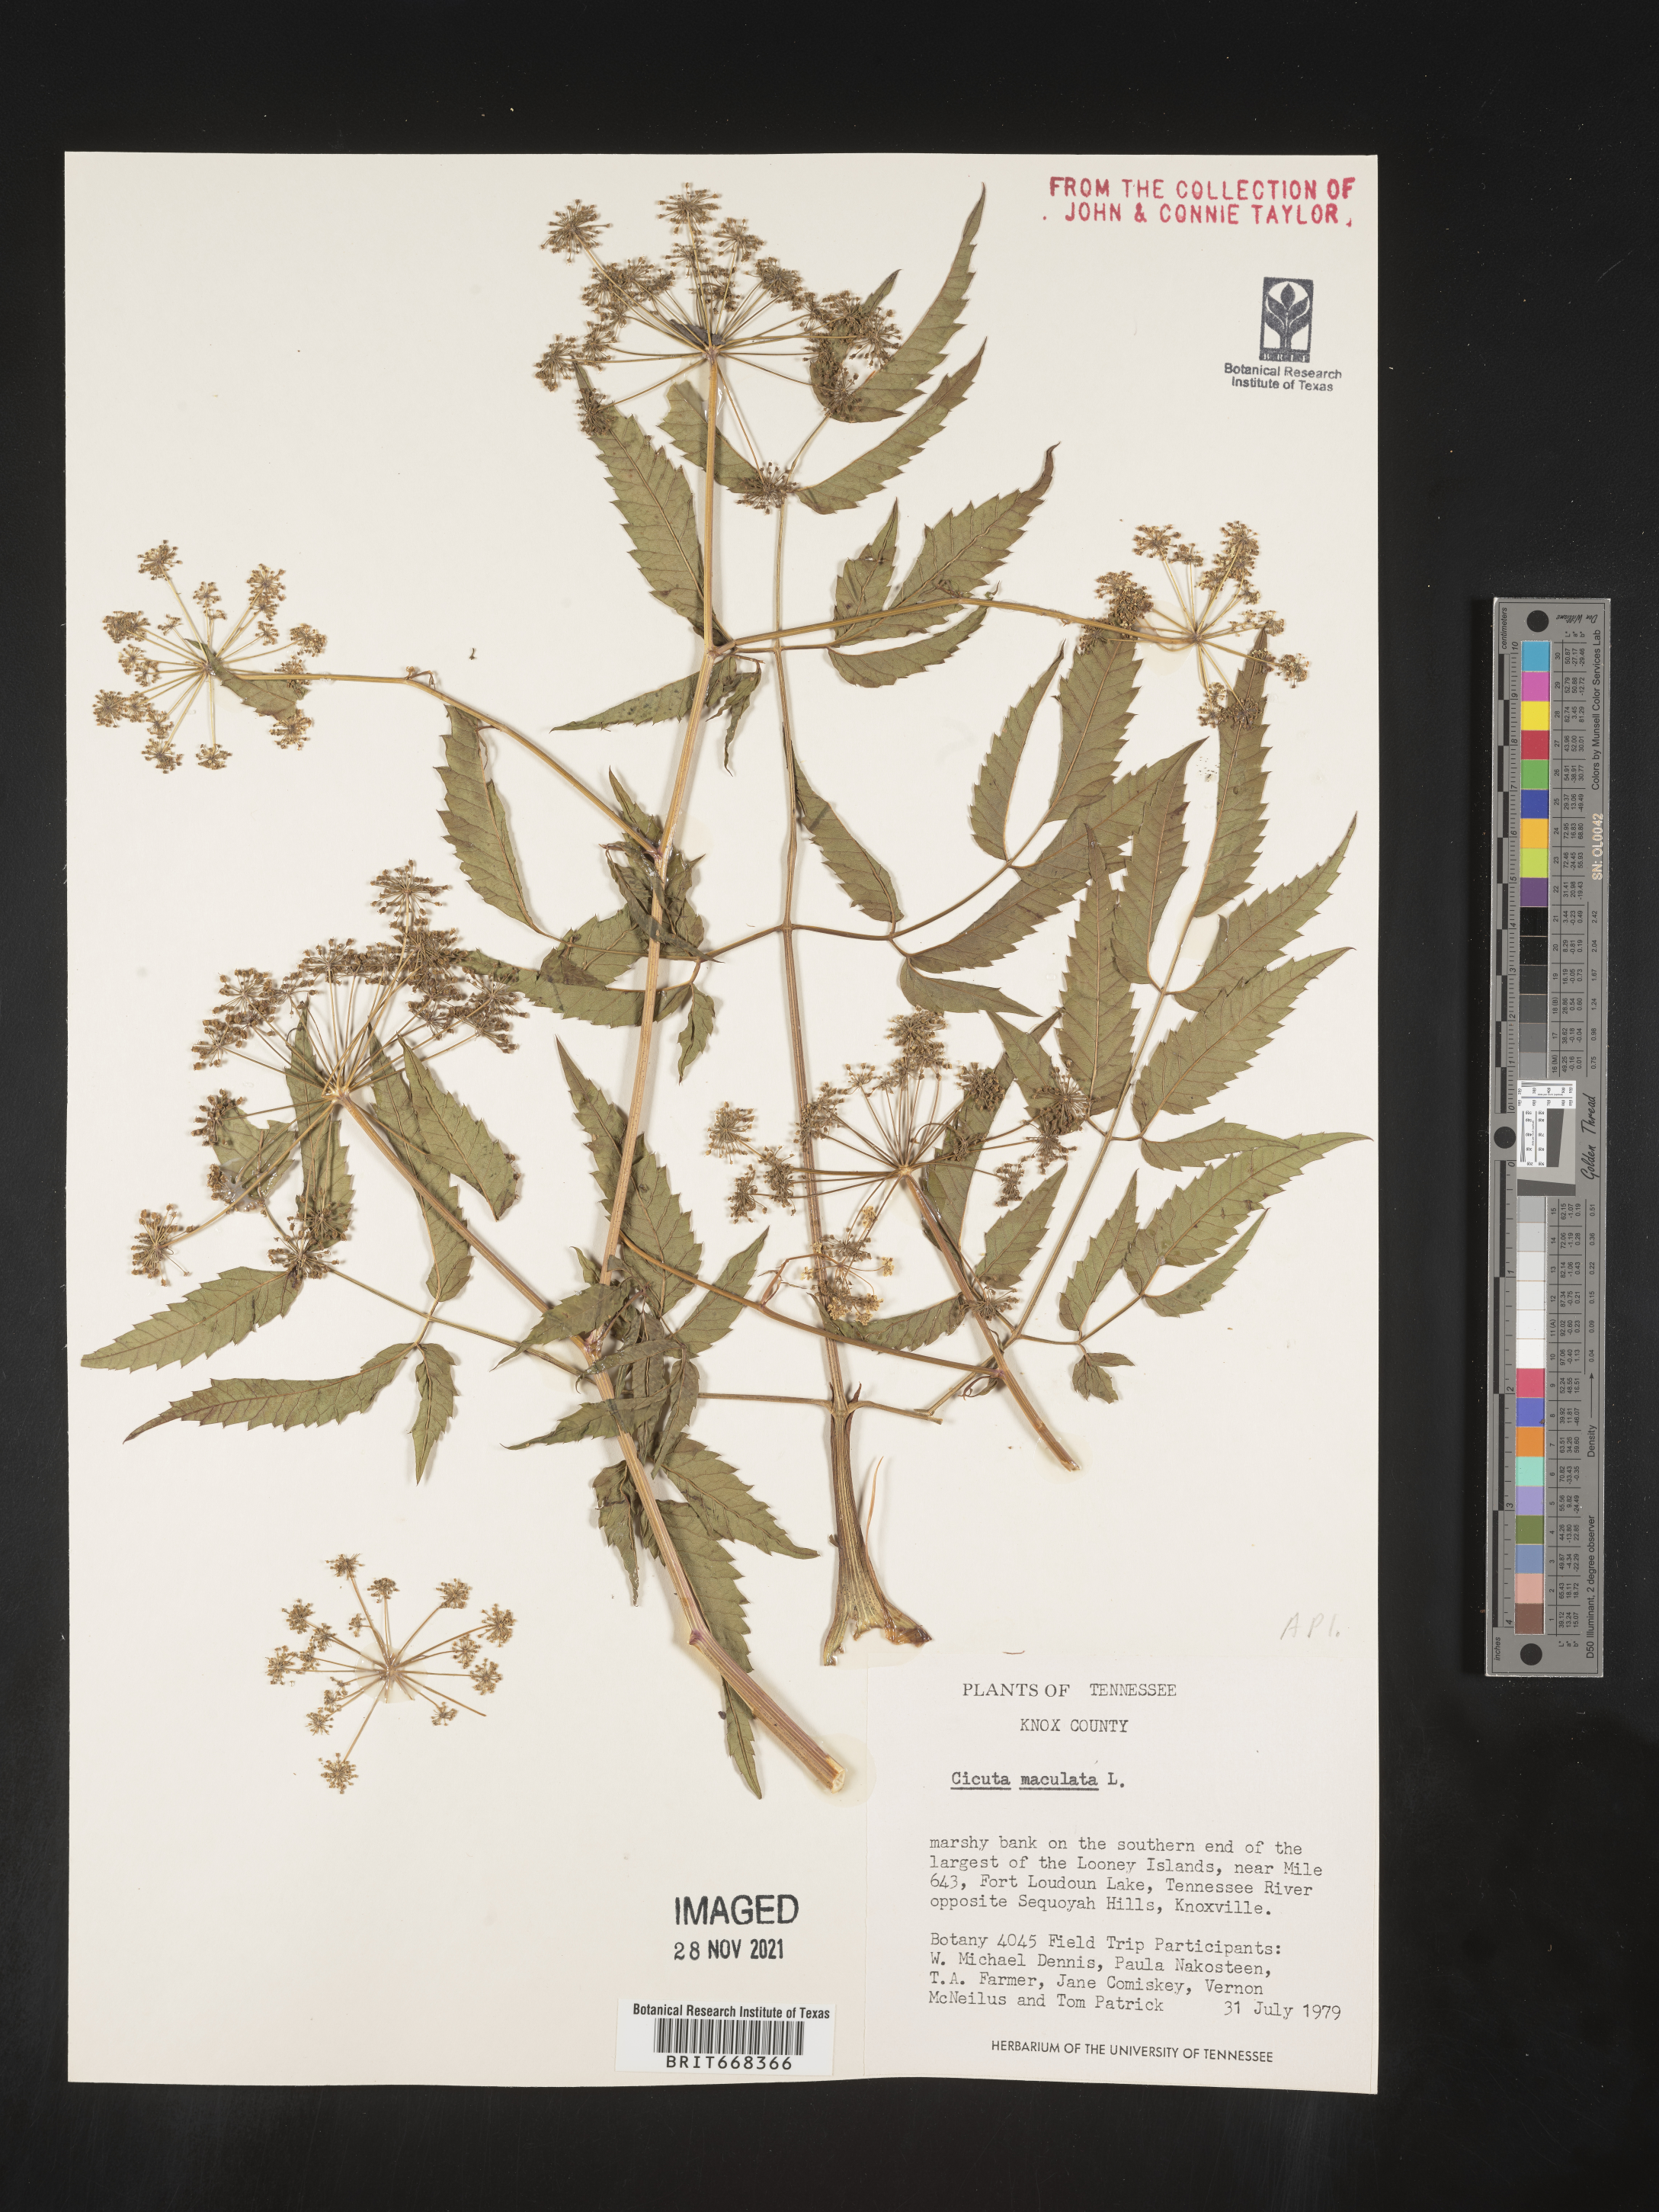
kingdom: Plantae
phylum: Tracheophyta
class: Magnoliopsida
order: Apiales
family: Apiaceae
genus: Cicuta
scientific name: Cicuta maculata
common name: Spotted cowbane
